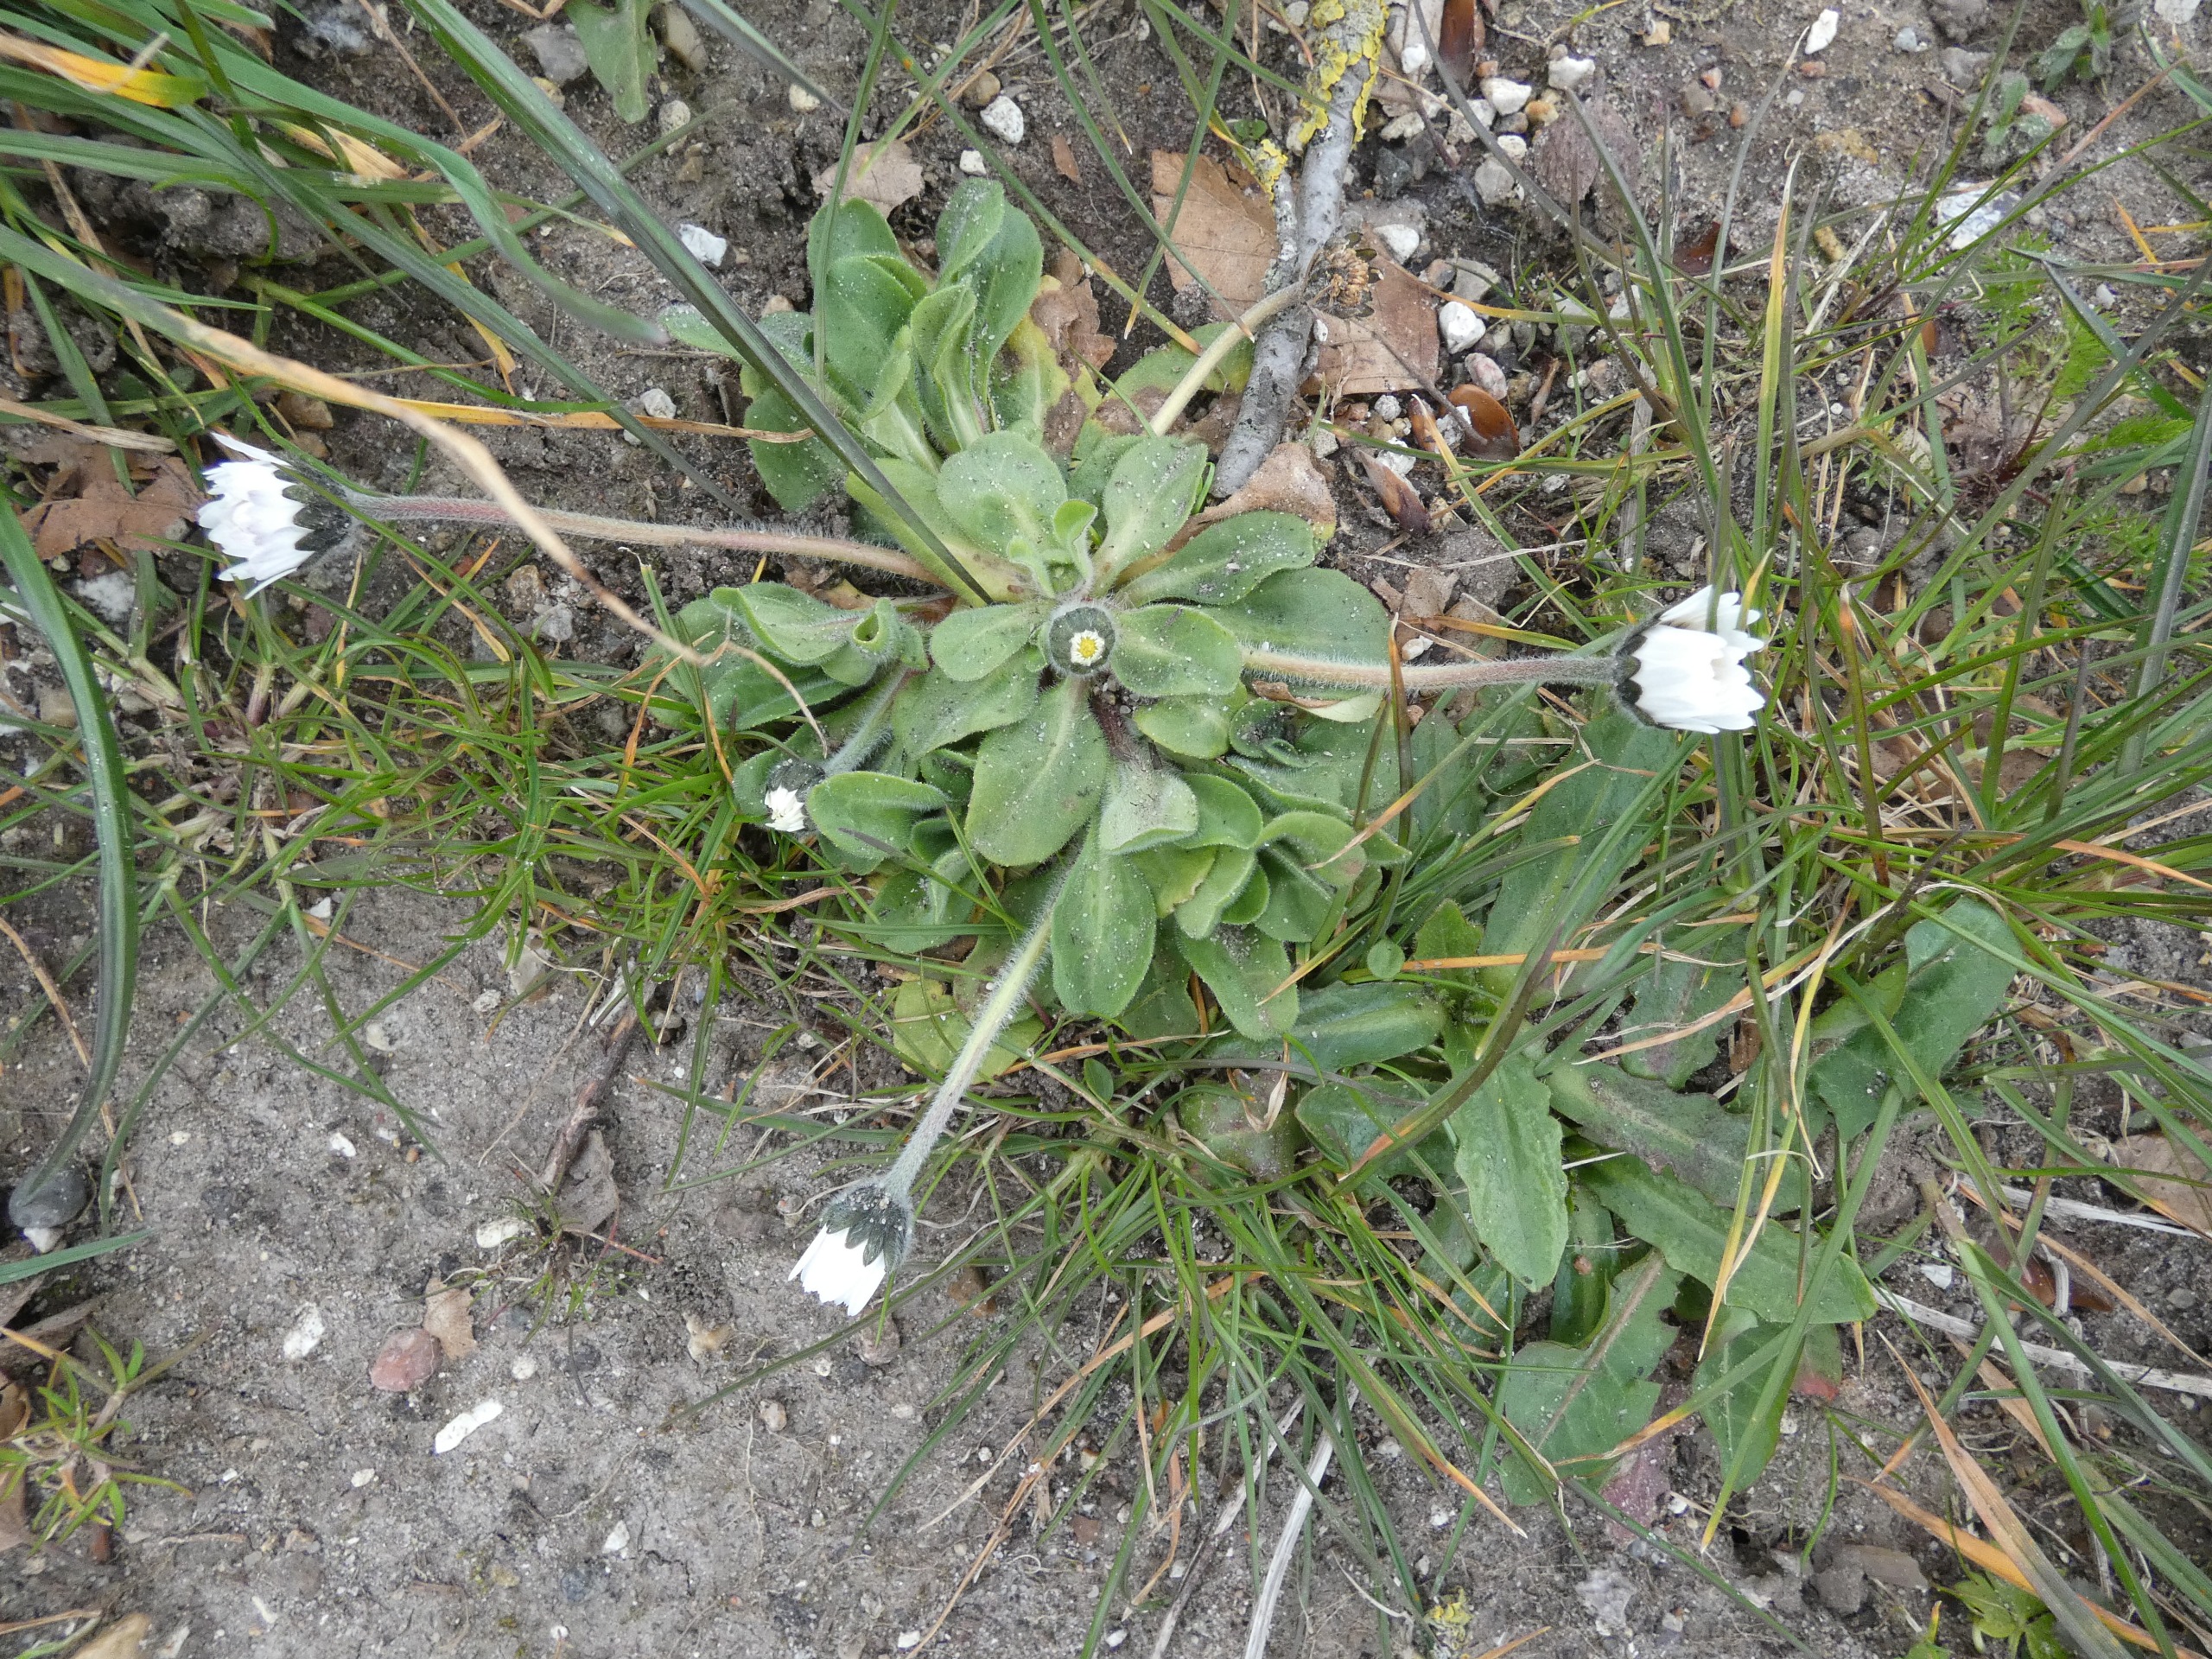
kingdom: Plantae
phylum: Tracheophyta
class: Magnoliopsida
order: Asterales
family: Asteraceae
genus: Bellis
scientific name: Bellis perennis
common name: Tusindfryd
